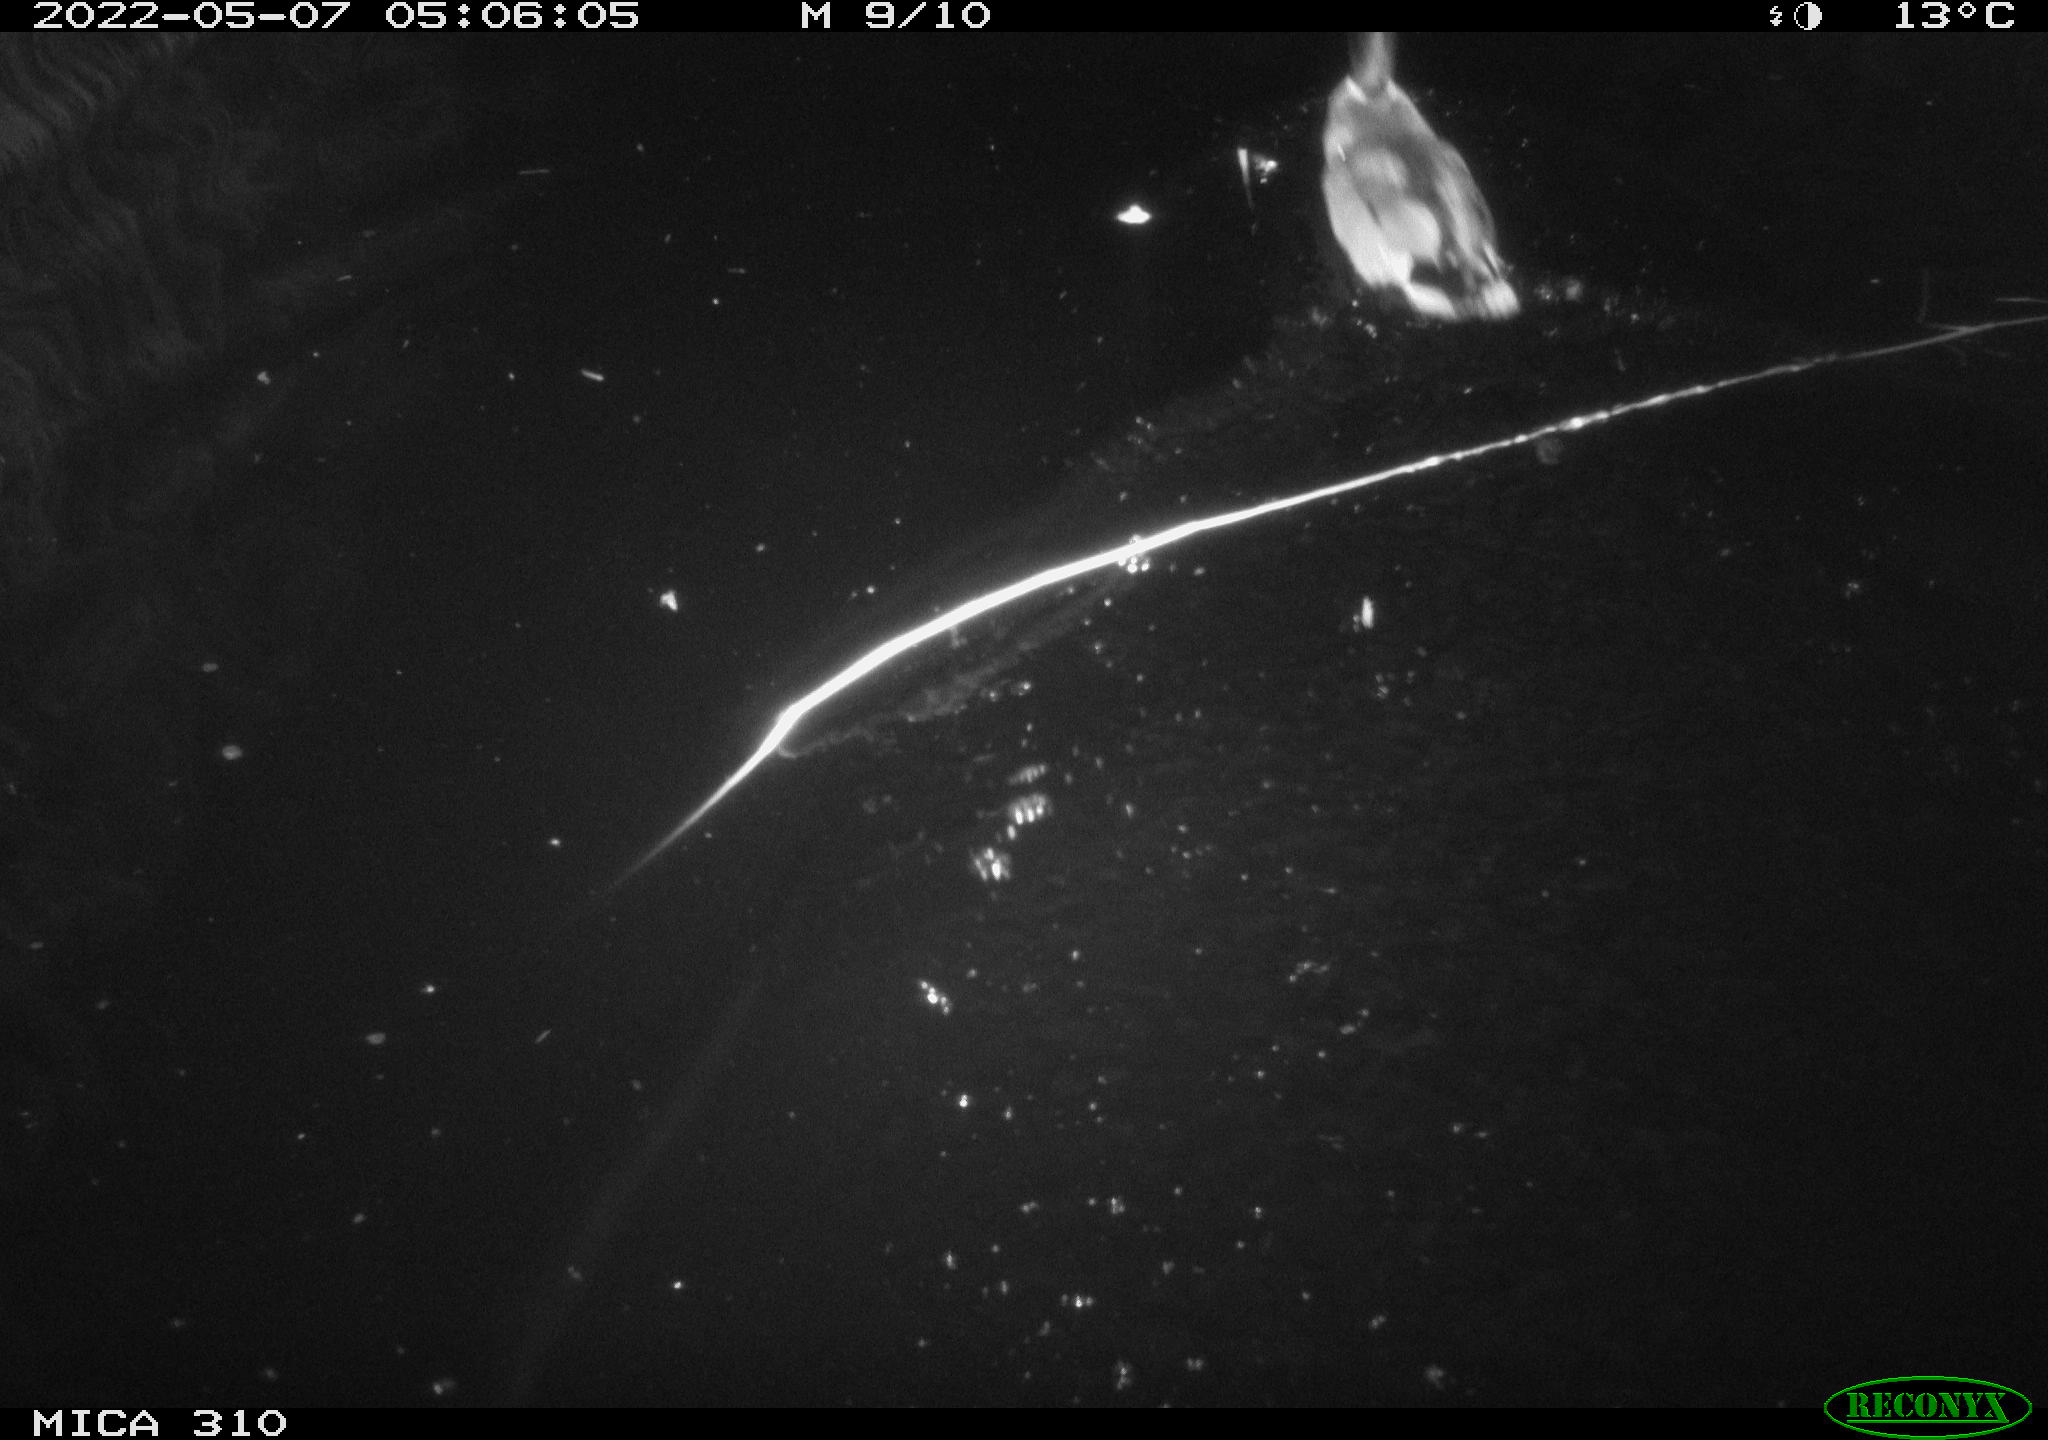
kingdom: Animalia
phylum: Chordata
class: Aves
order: Anseriformes
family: Anatidae
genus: Anas
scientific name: Anas platyrhynchos
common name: Mallard
